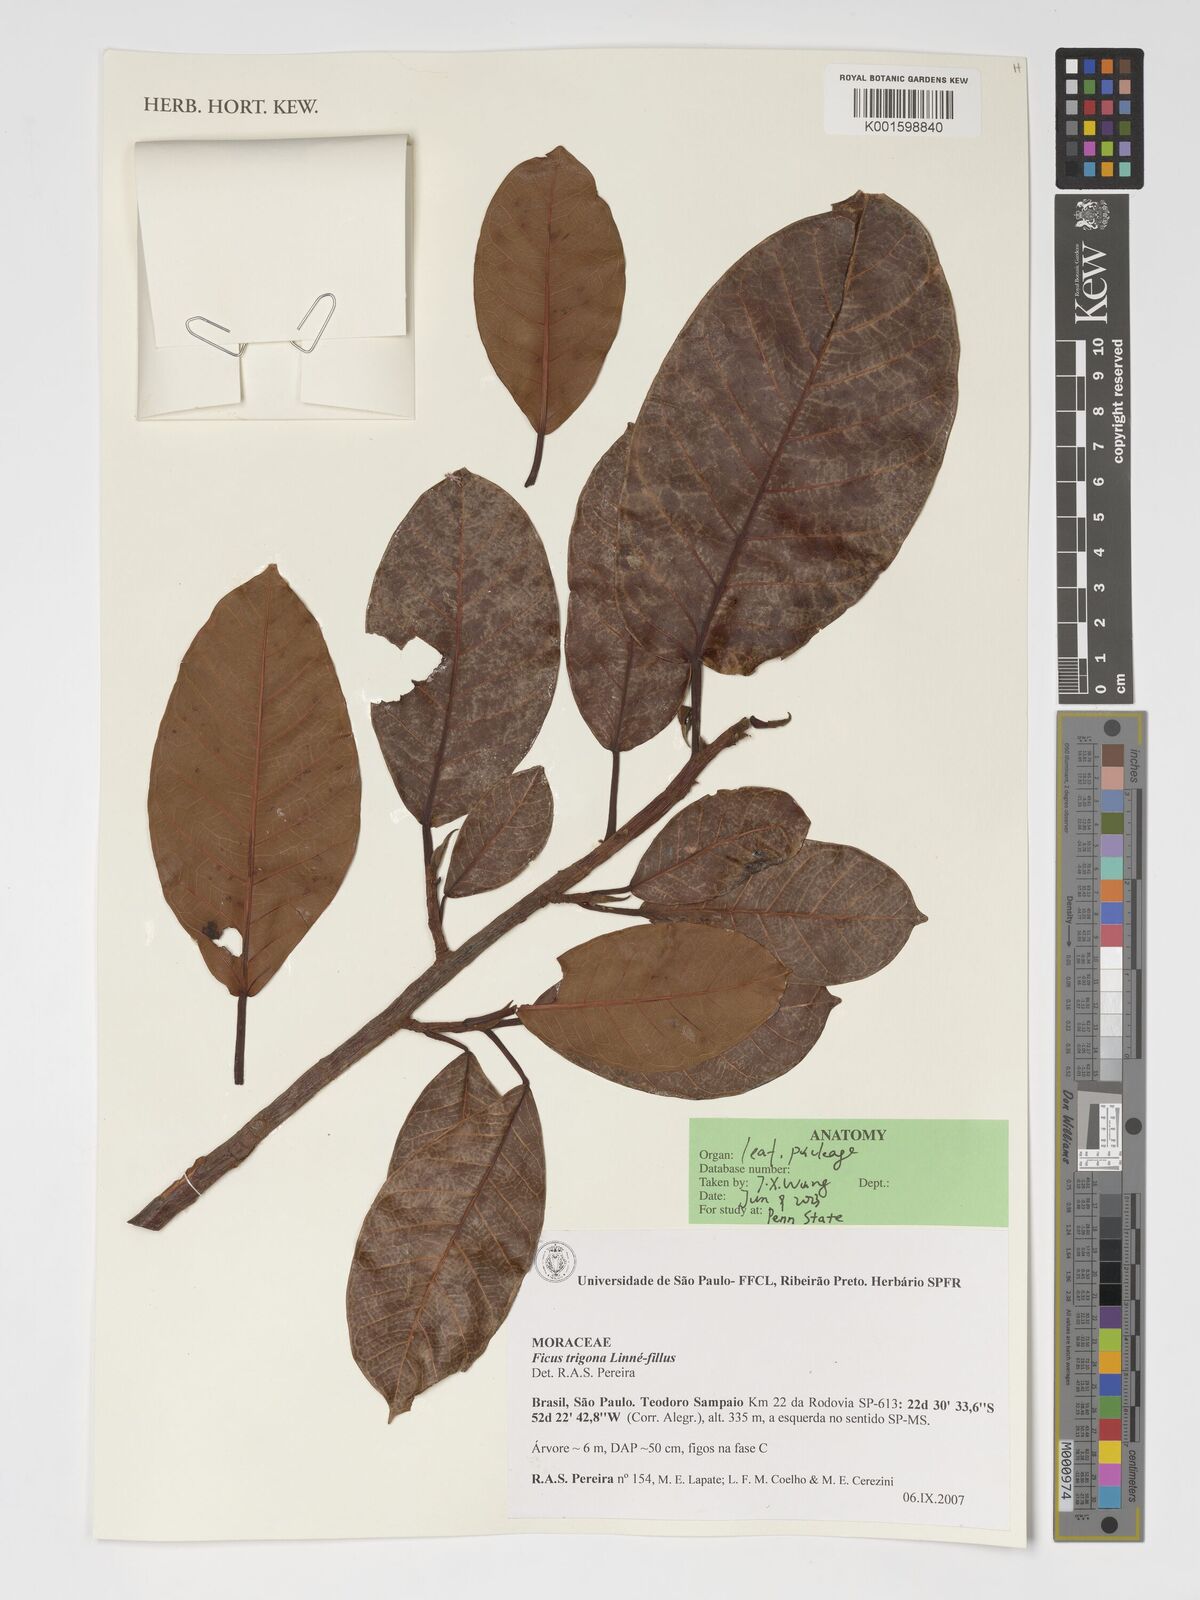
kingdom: Plantae
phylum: Tracheophyta
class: Magnoliopsida
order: Rosales
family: Moraceae
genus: Ficus
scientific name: Ficus trigona
